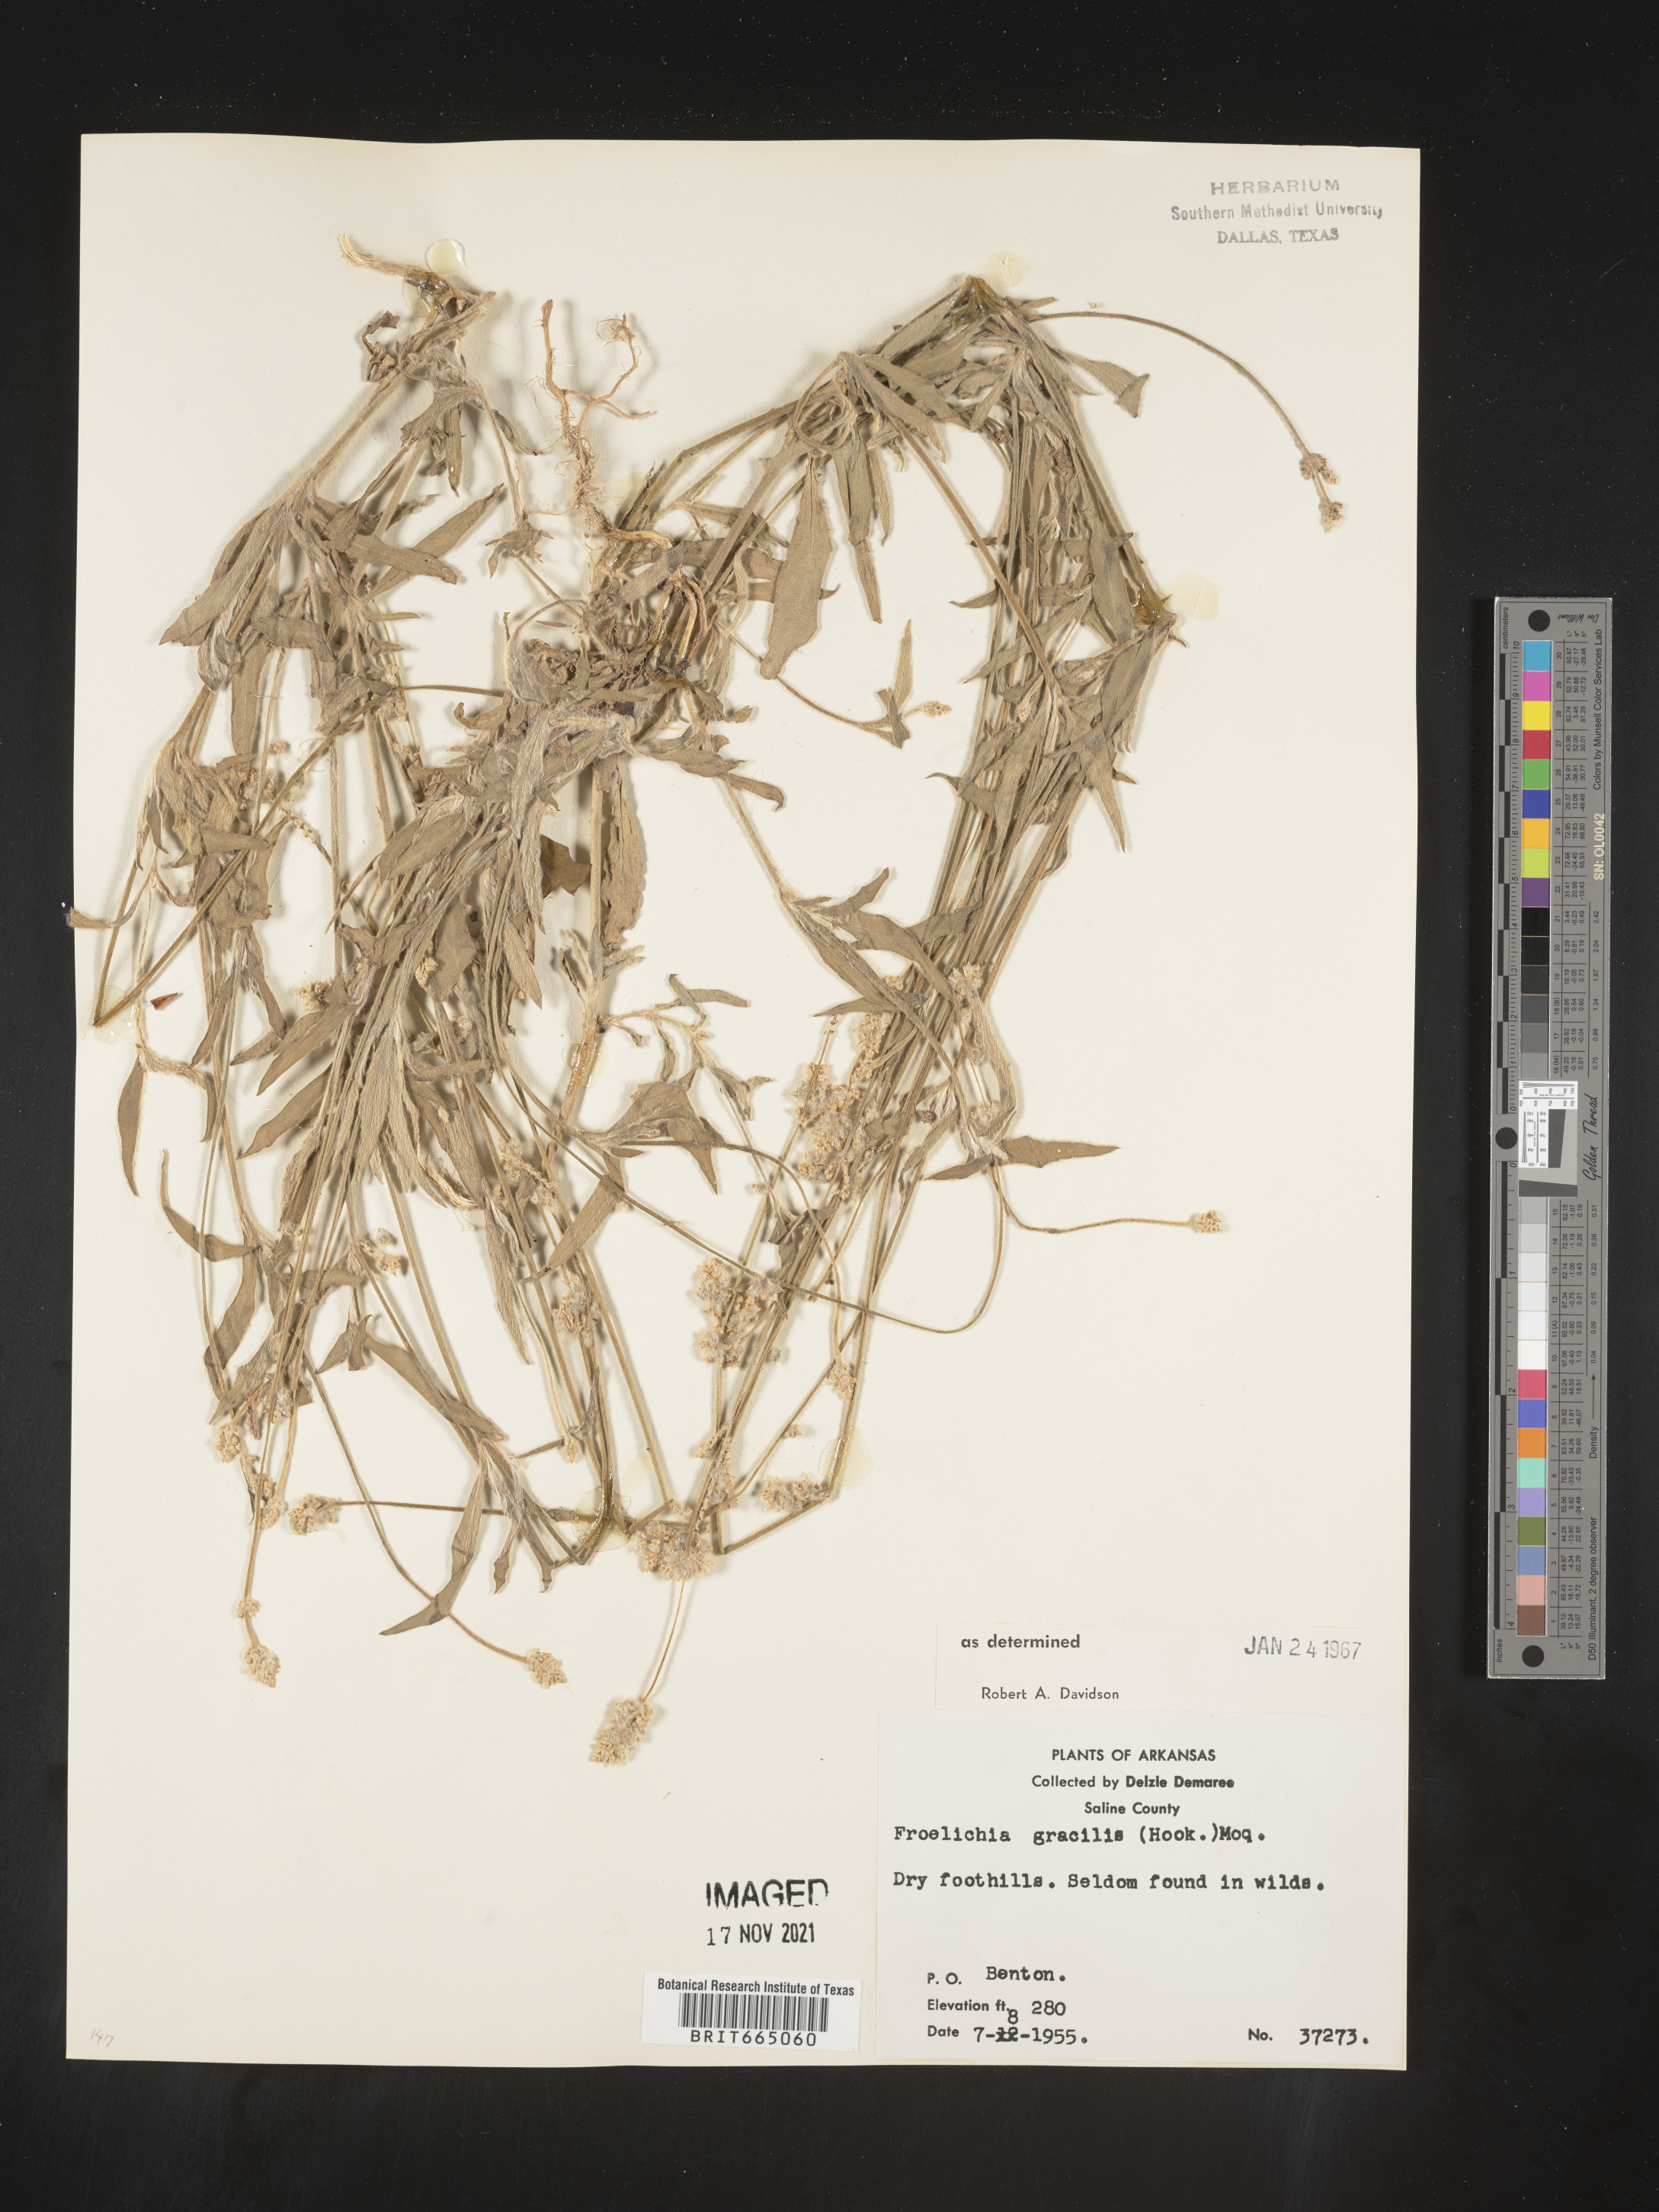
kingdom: Plantae
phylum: Tracheophyta
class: Magnoliopsida
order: Caryophyllales
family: Amaranthaceae
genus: Froelichia
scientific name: Froelichia gracilis
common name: Slender cottonweed
